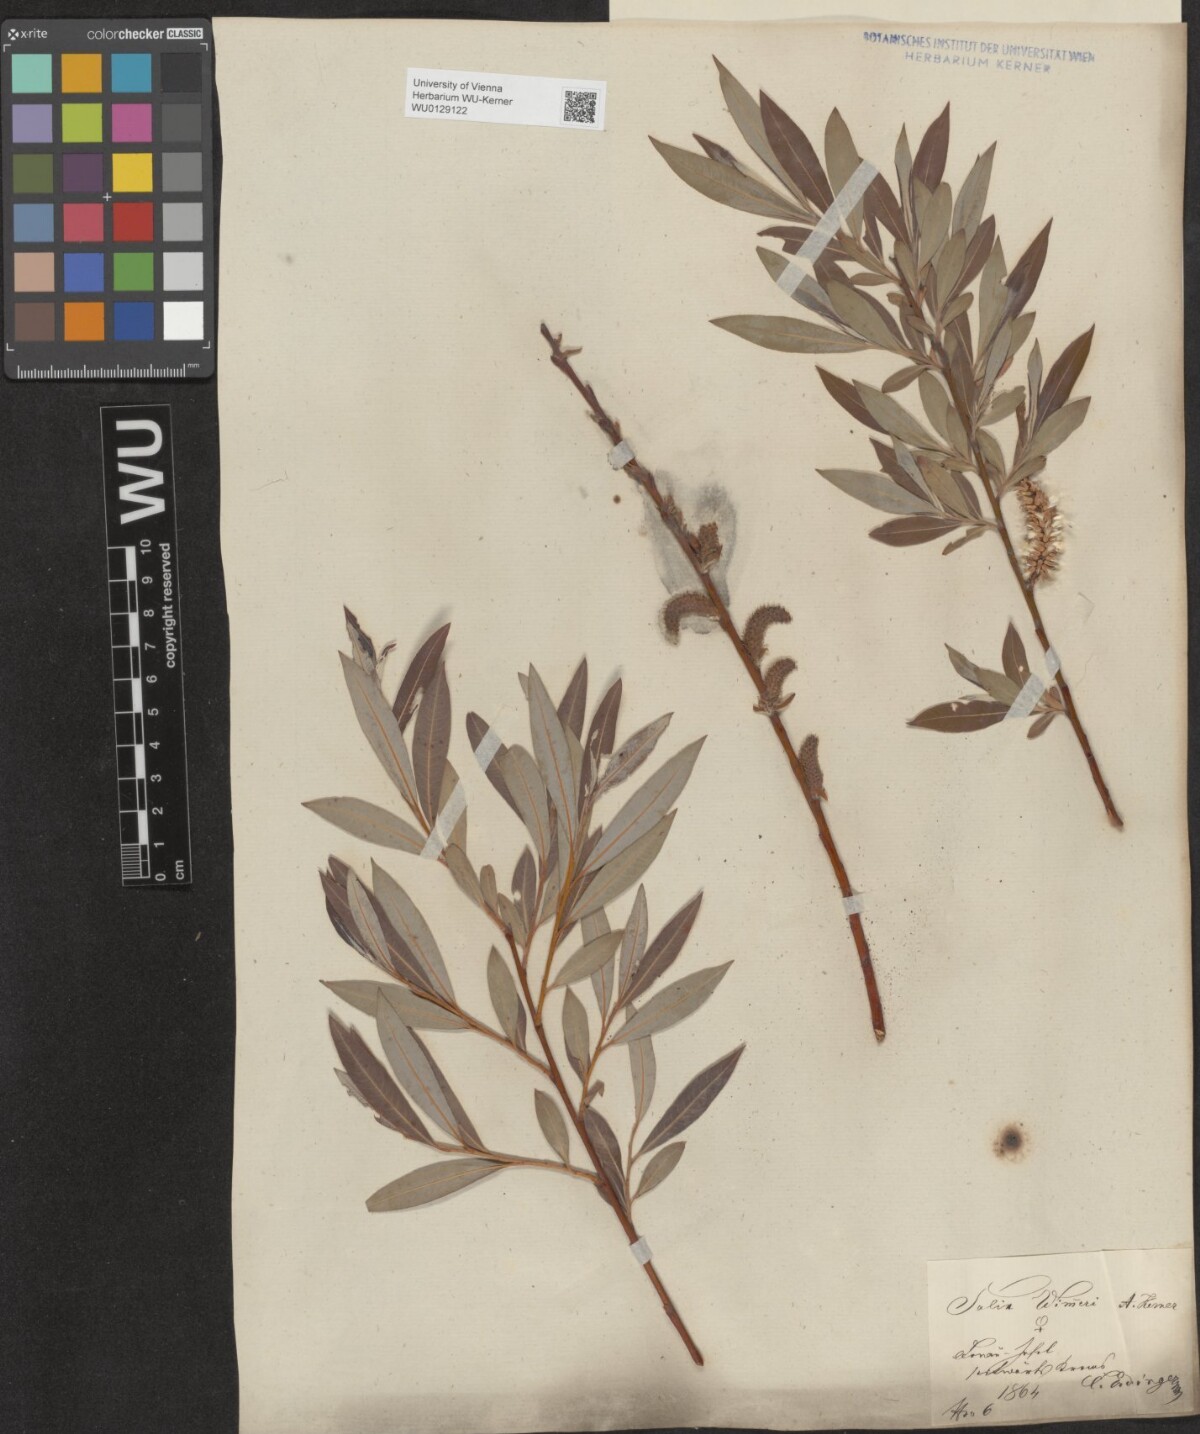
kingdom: Plantae
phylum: Tracheophyta
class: Magnoliopsida
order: Malpighiales
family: Salicaceae
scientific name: Salicaceae
